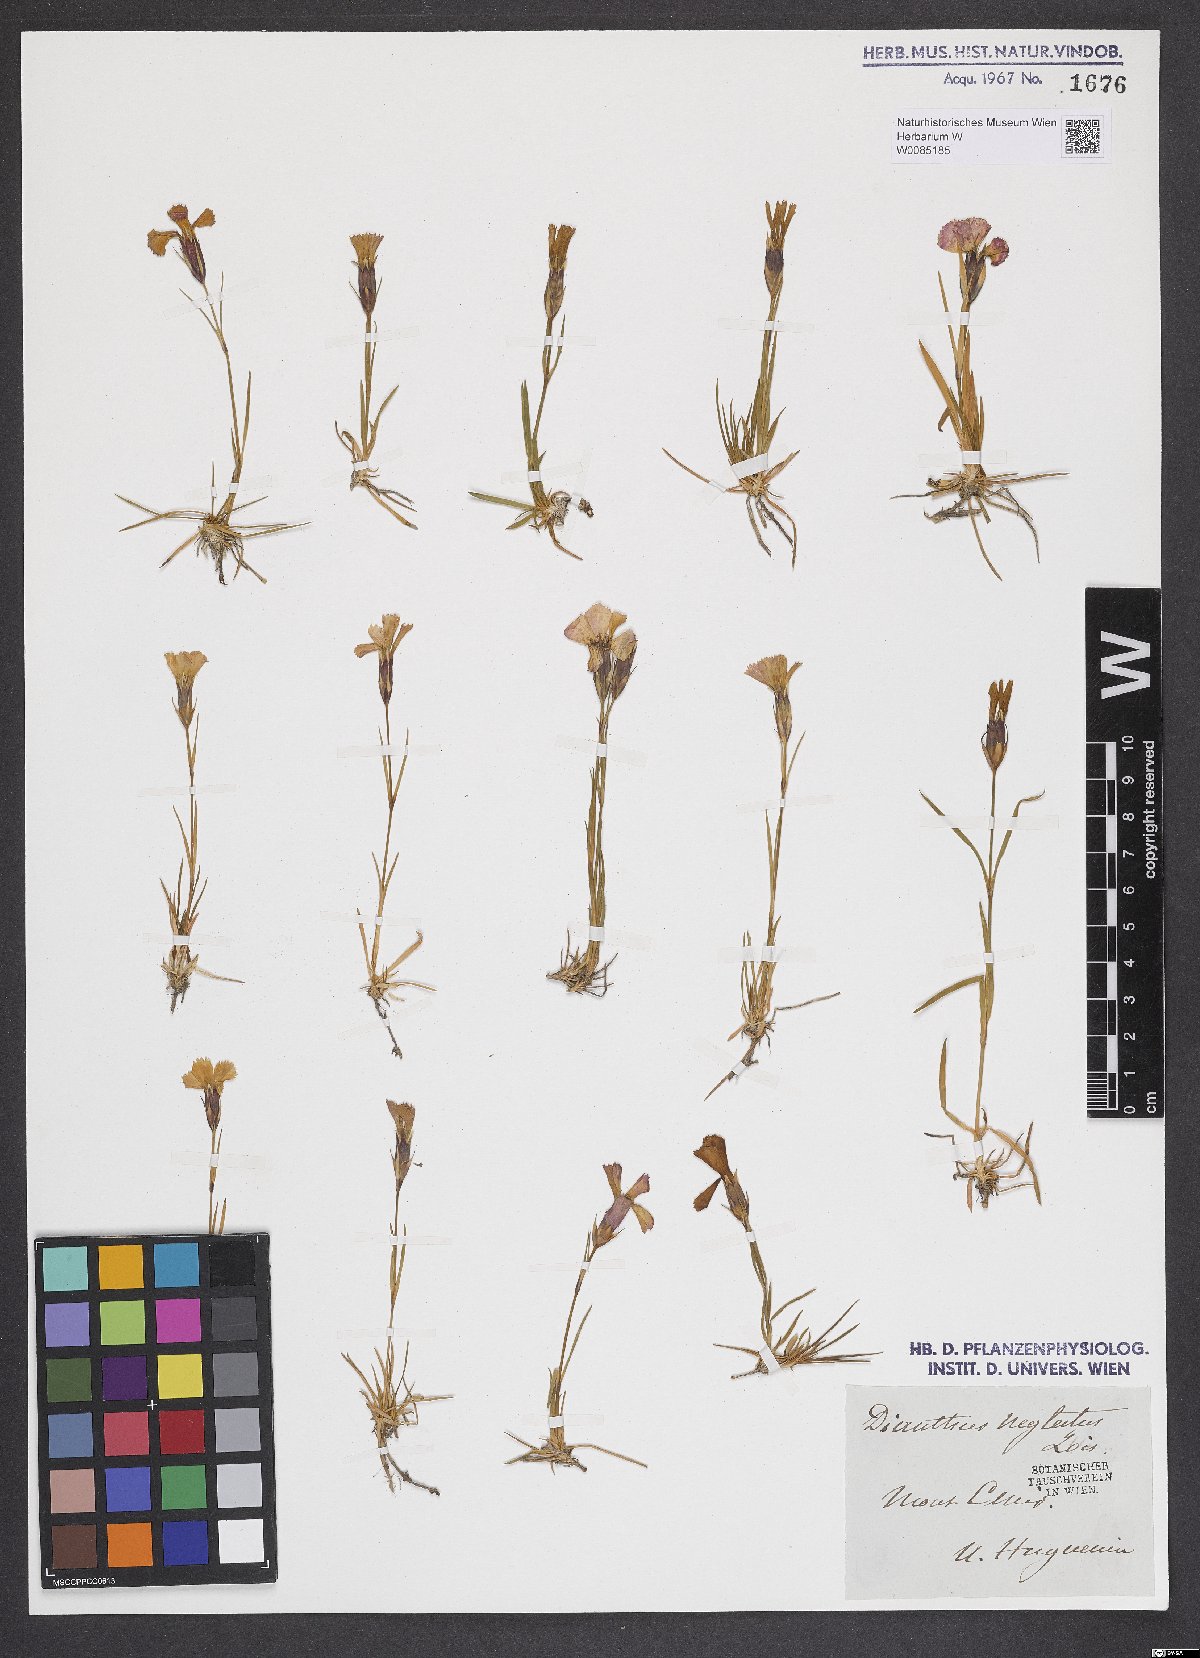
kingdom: Plantae
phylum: Tracheophyta
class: Magnoliopsida
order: Caryophyllales
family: Caryophyllaceae
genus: Dianthus
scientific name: Dianthus pavonius
